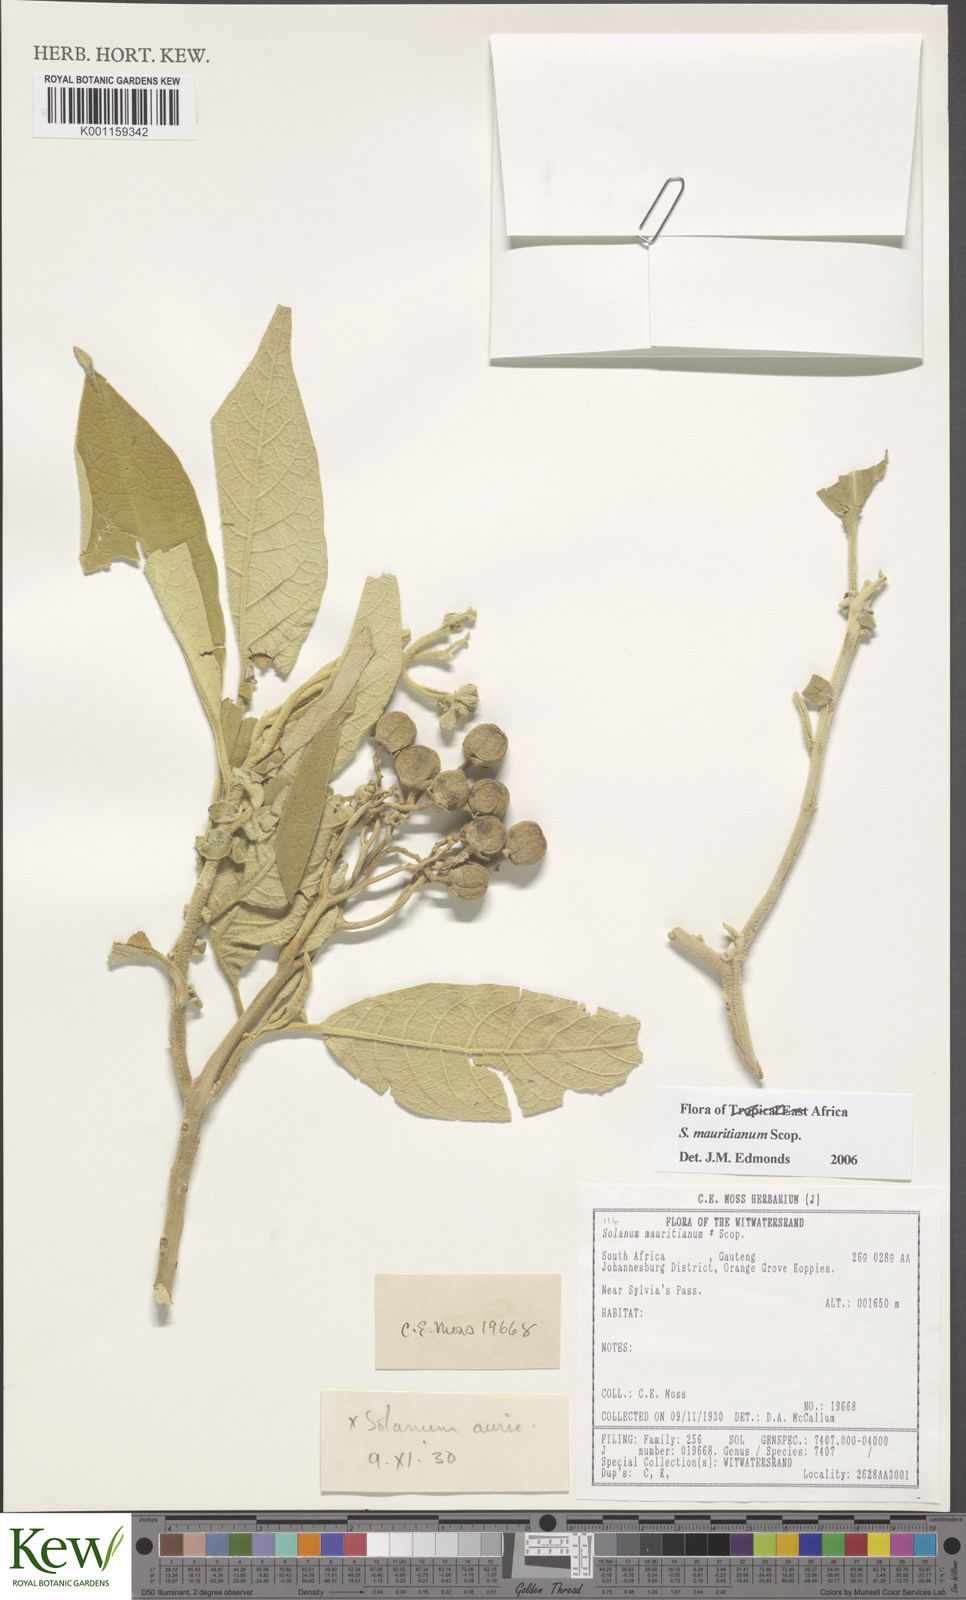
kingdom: Plantae
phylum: Tracheophyta
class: Magnoliopsida
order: Solanales
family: Solanaceae
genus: Solanum
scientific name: Solanum mauritianum
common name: Earleaf nightshade
